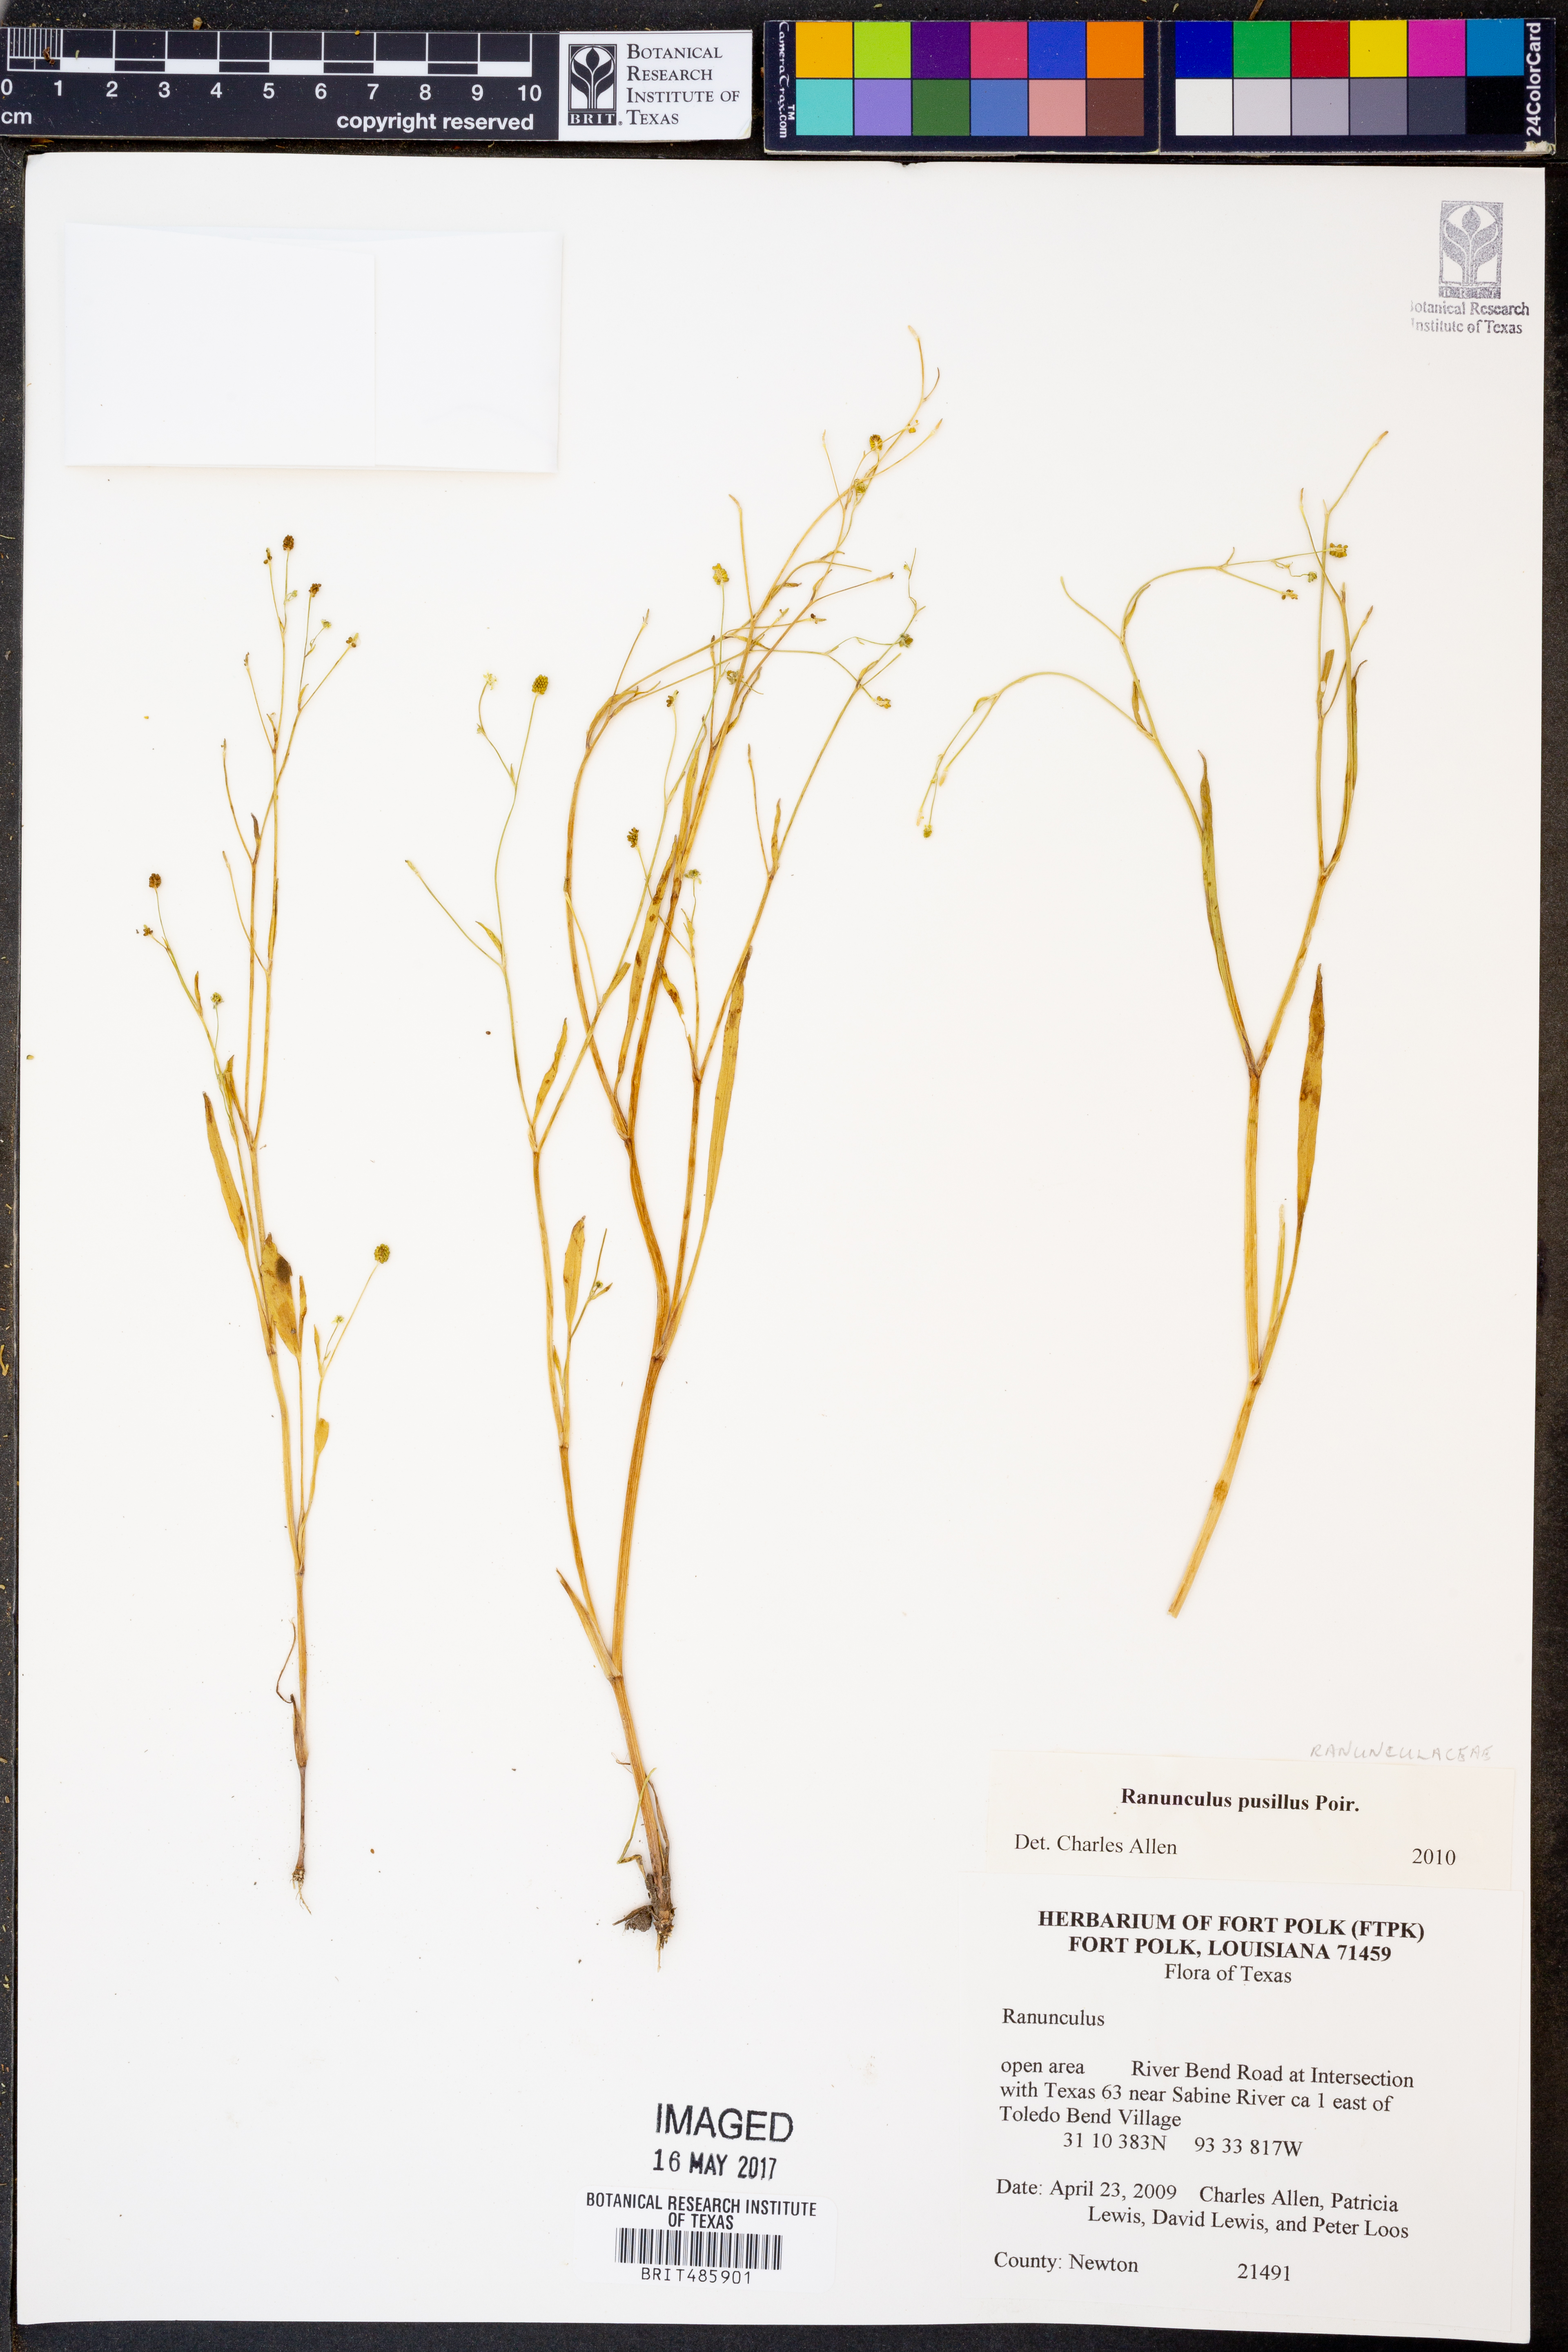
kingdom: Plantae
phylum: Tracheophyta
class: Magnoliopsida
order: Ranunculales
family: Ranunculaceae
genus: Ranunculus
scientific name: Ranunculus pusillus
